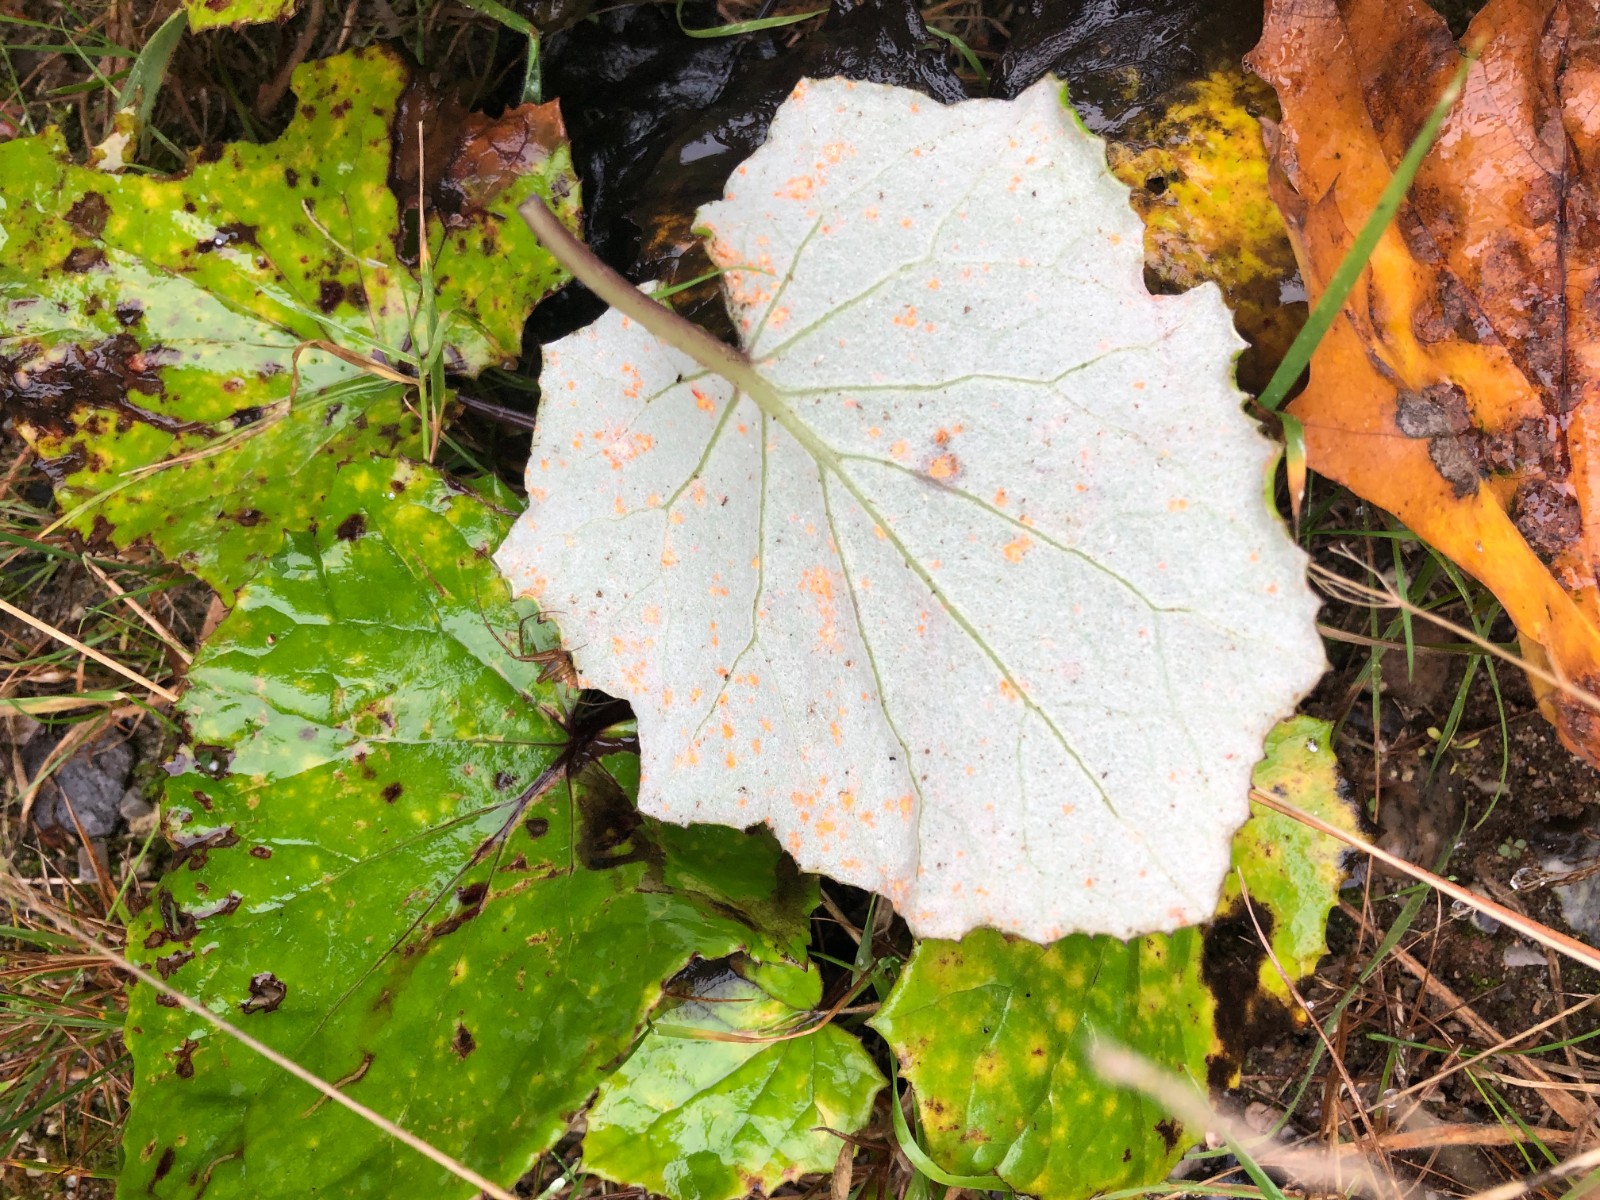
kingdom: Fungi
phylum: Basidiomycota
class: Pucciniomycetes
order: Pucciniales
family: Coleosporiaceae
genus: Coleosporium
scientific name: Coleosporium tussilaginis
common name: almindelig fyrrenålerust
